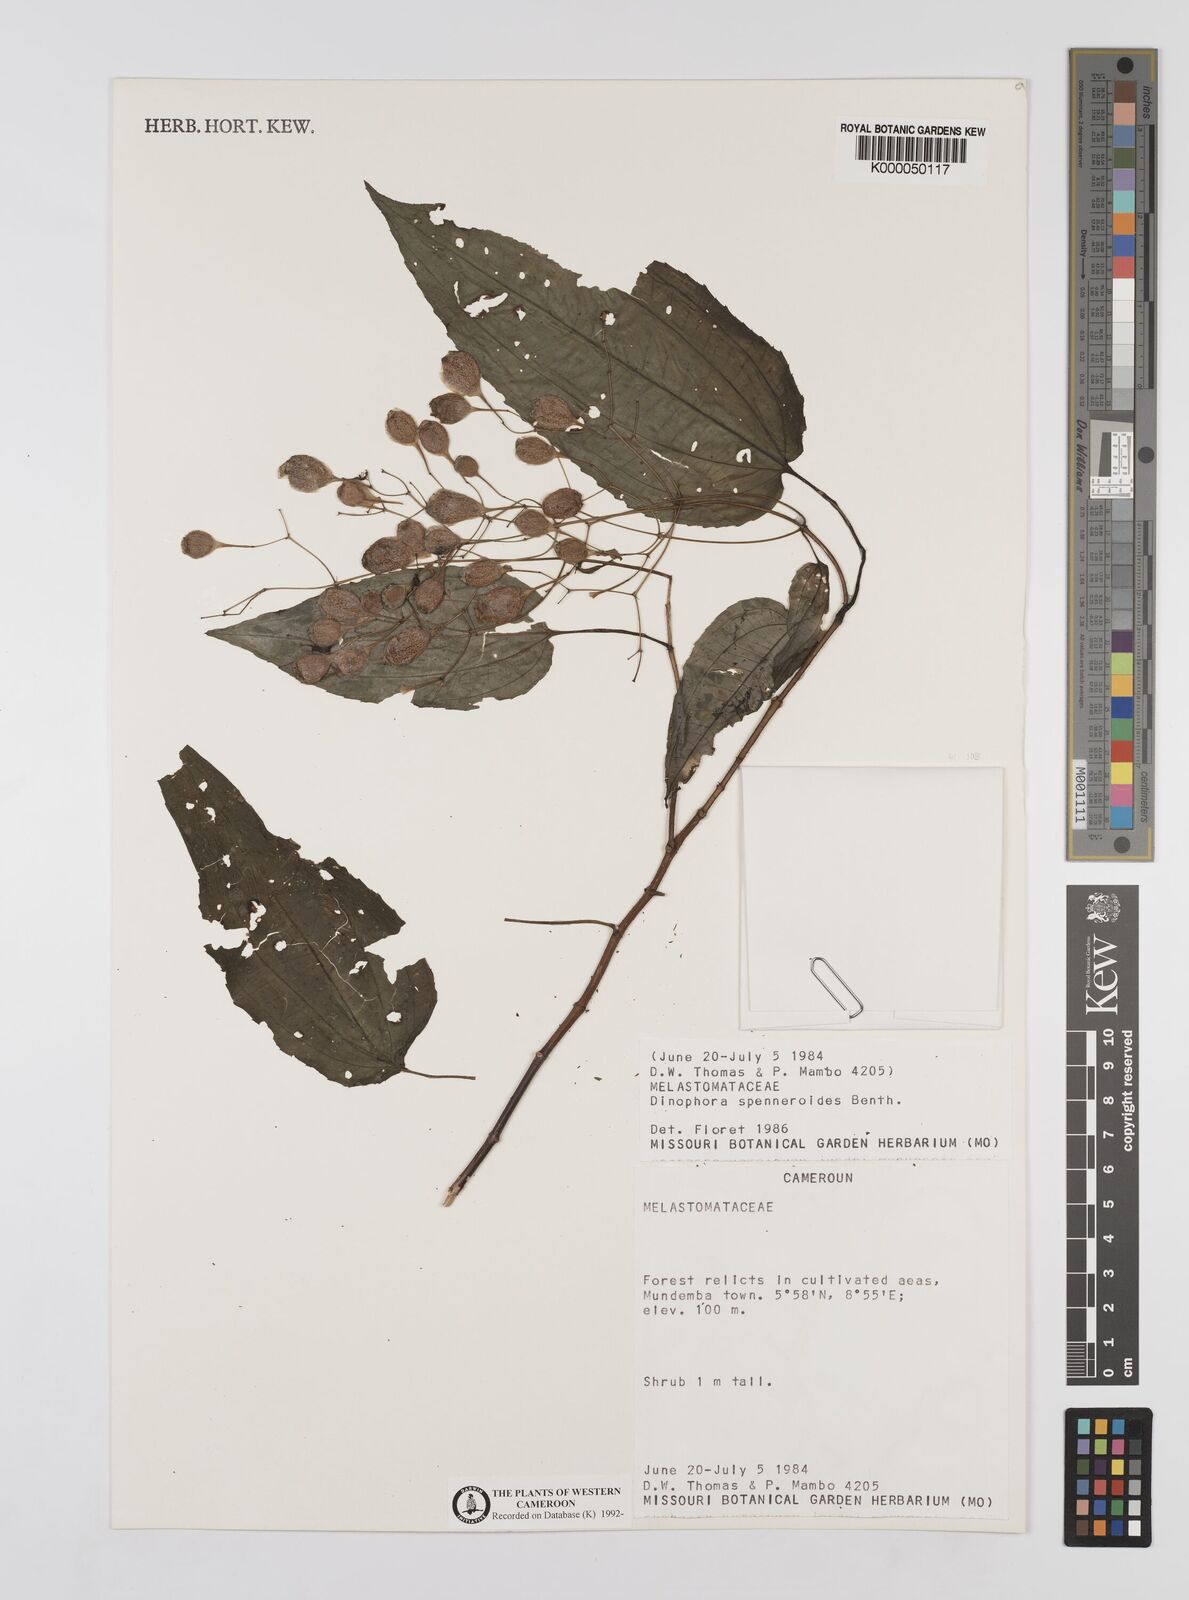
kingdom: Plantae
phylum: Tracheophyta
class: Magnoliopsida
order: Myrtales
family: Melastomataceae
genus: Dinophora
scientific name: Dinophora spenneroides
